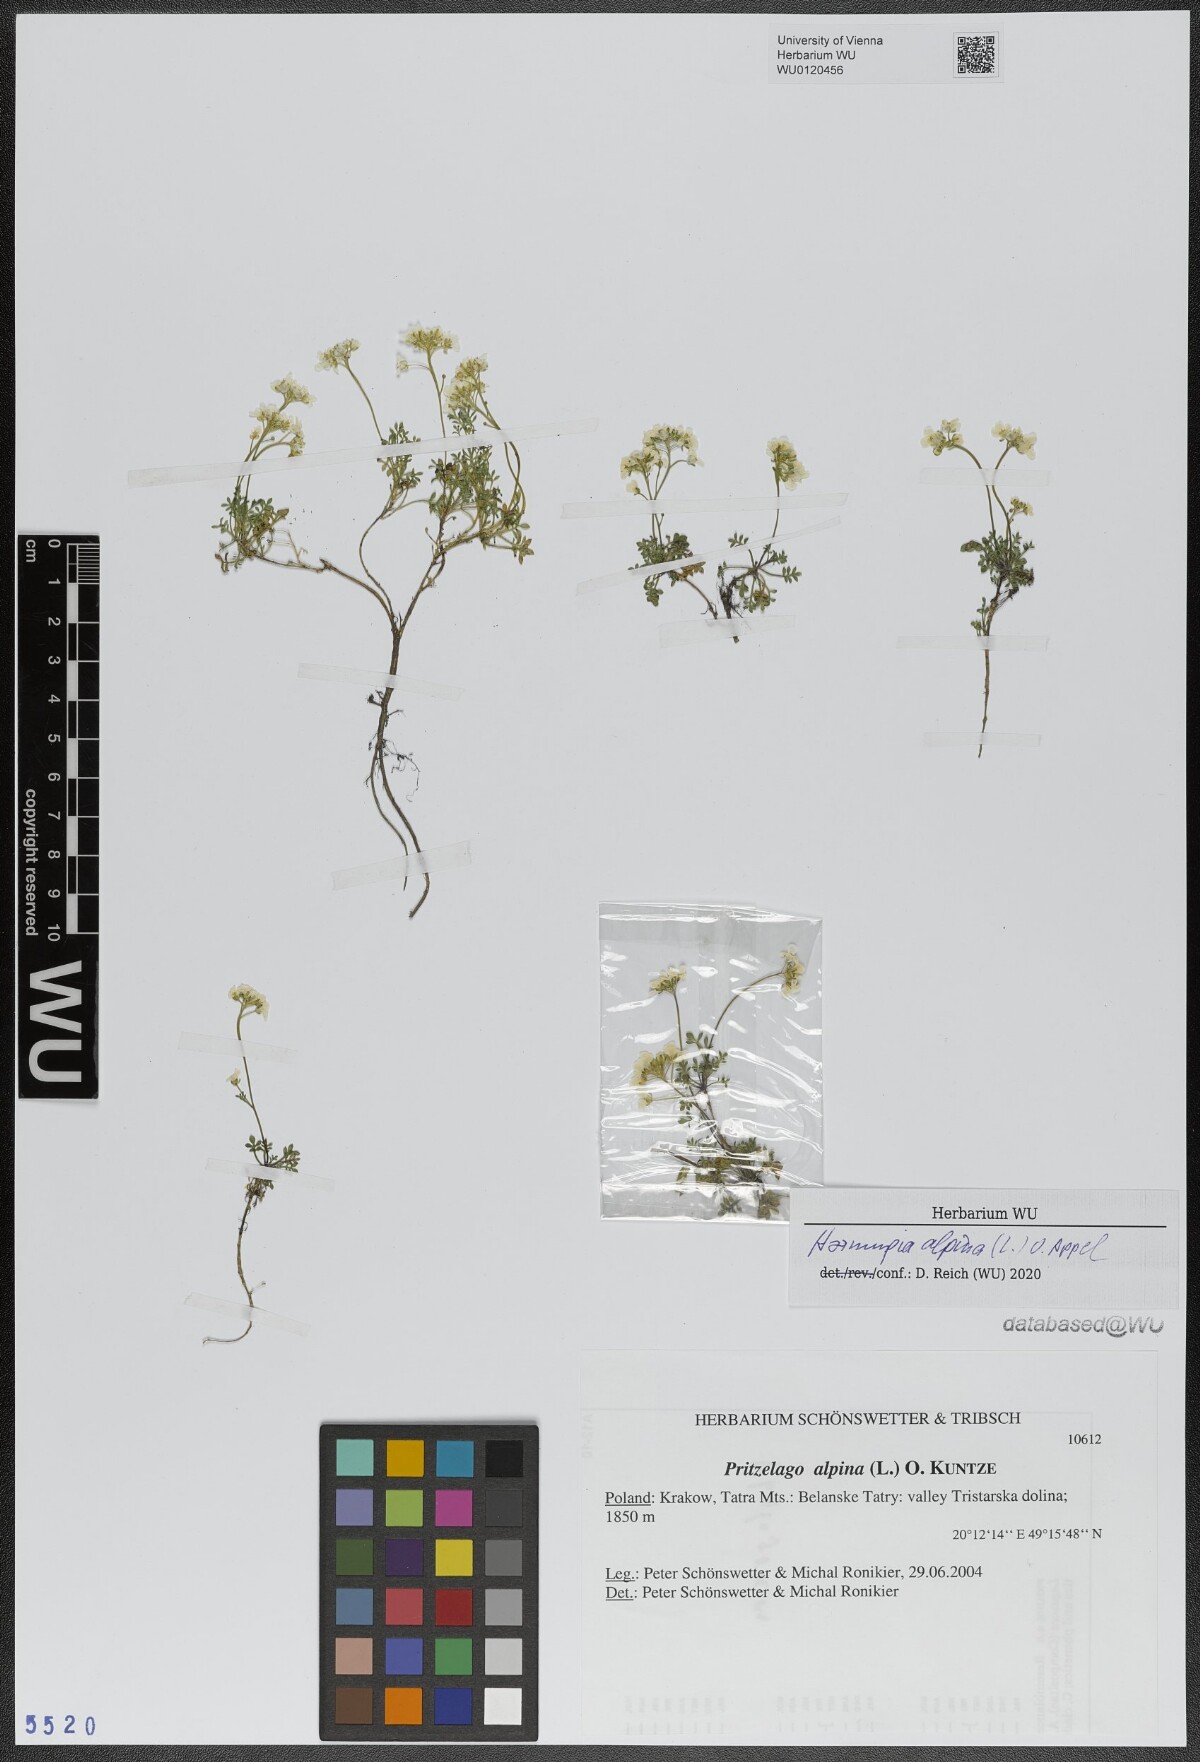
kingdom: Plantae
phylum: Tracheophyta
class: Magnoliopsida
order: Brassicales
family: Brassicaceae
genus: Hornungia
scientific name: Hornungia alpina
